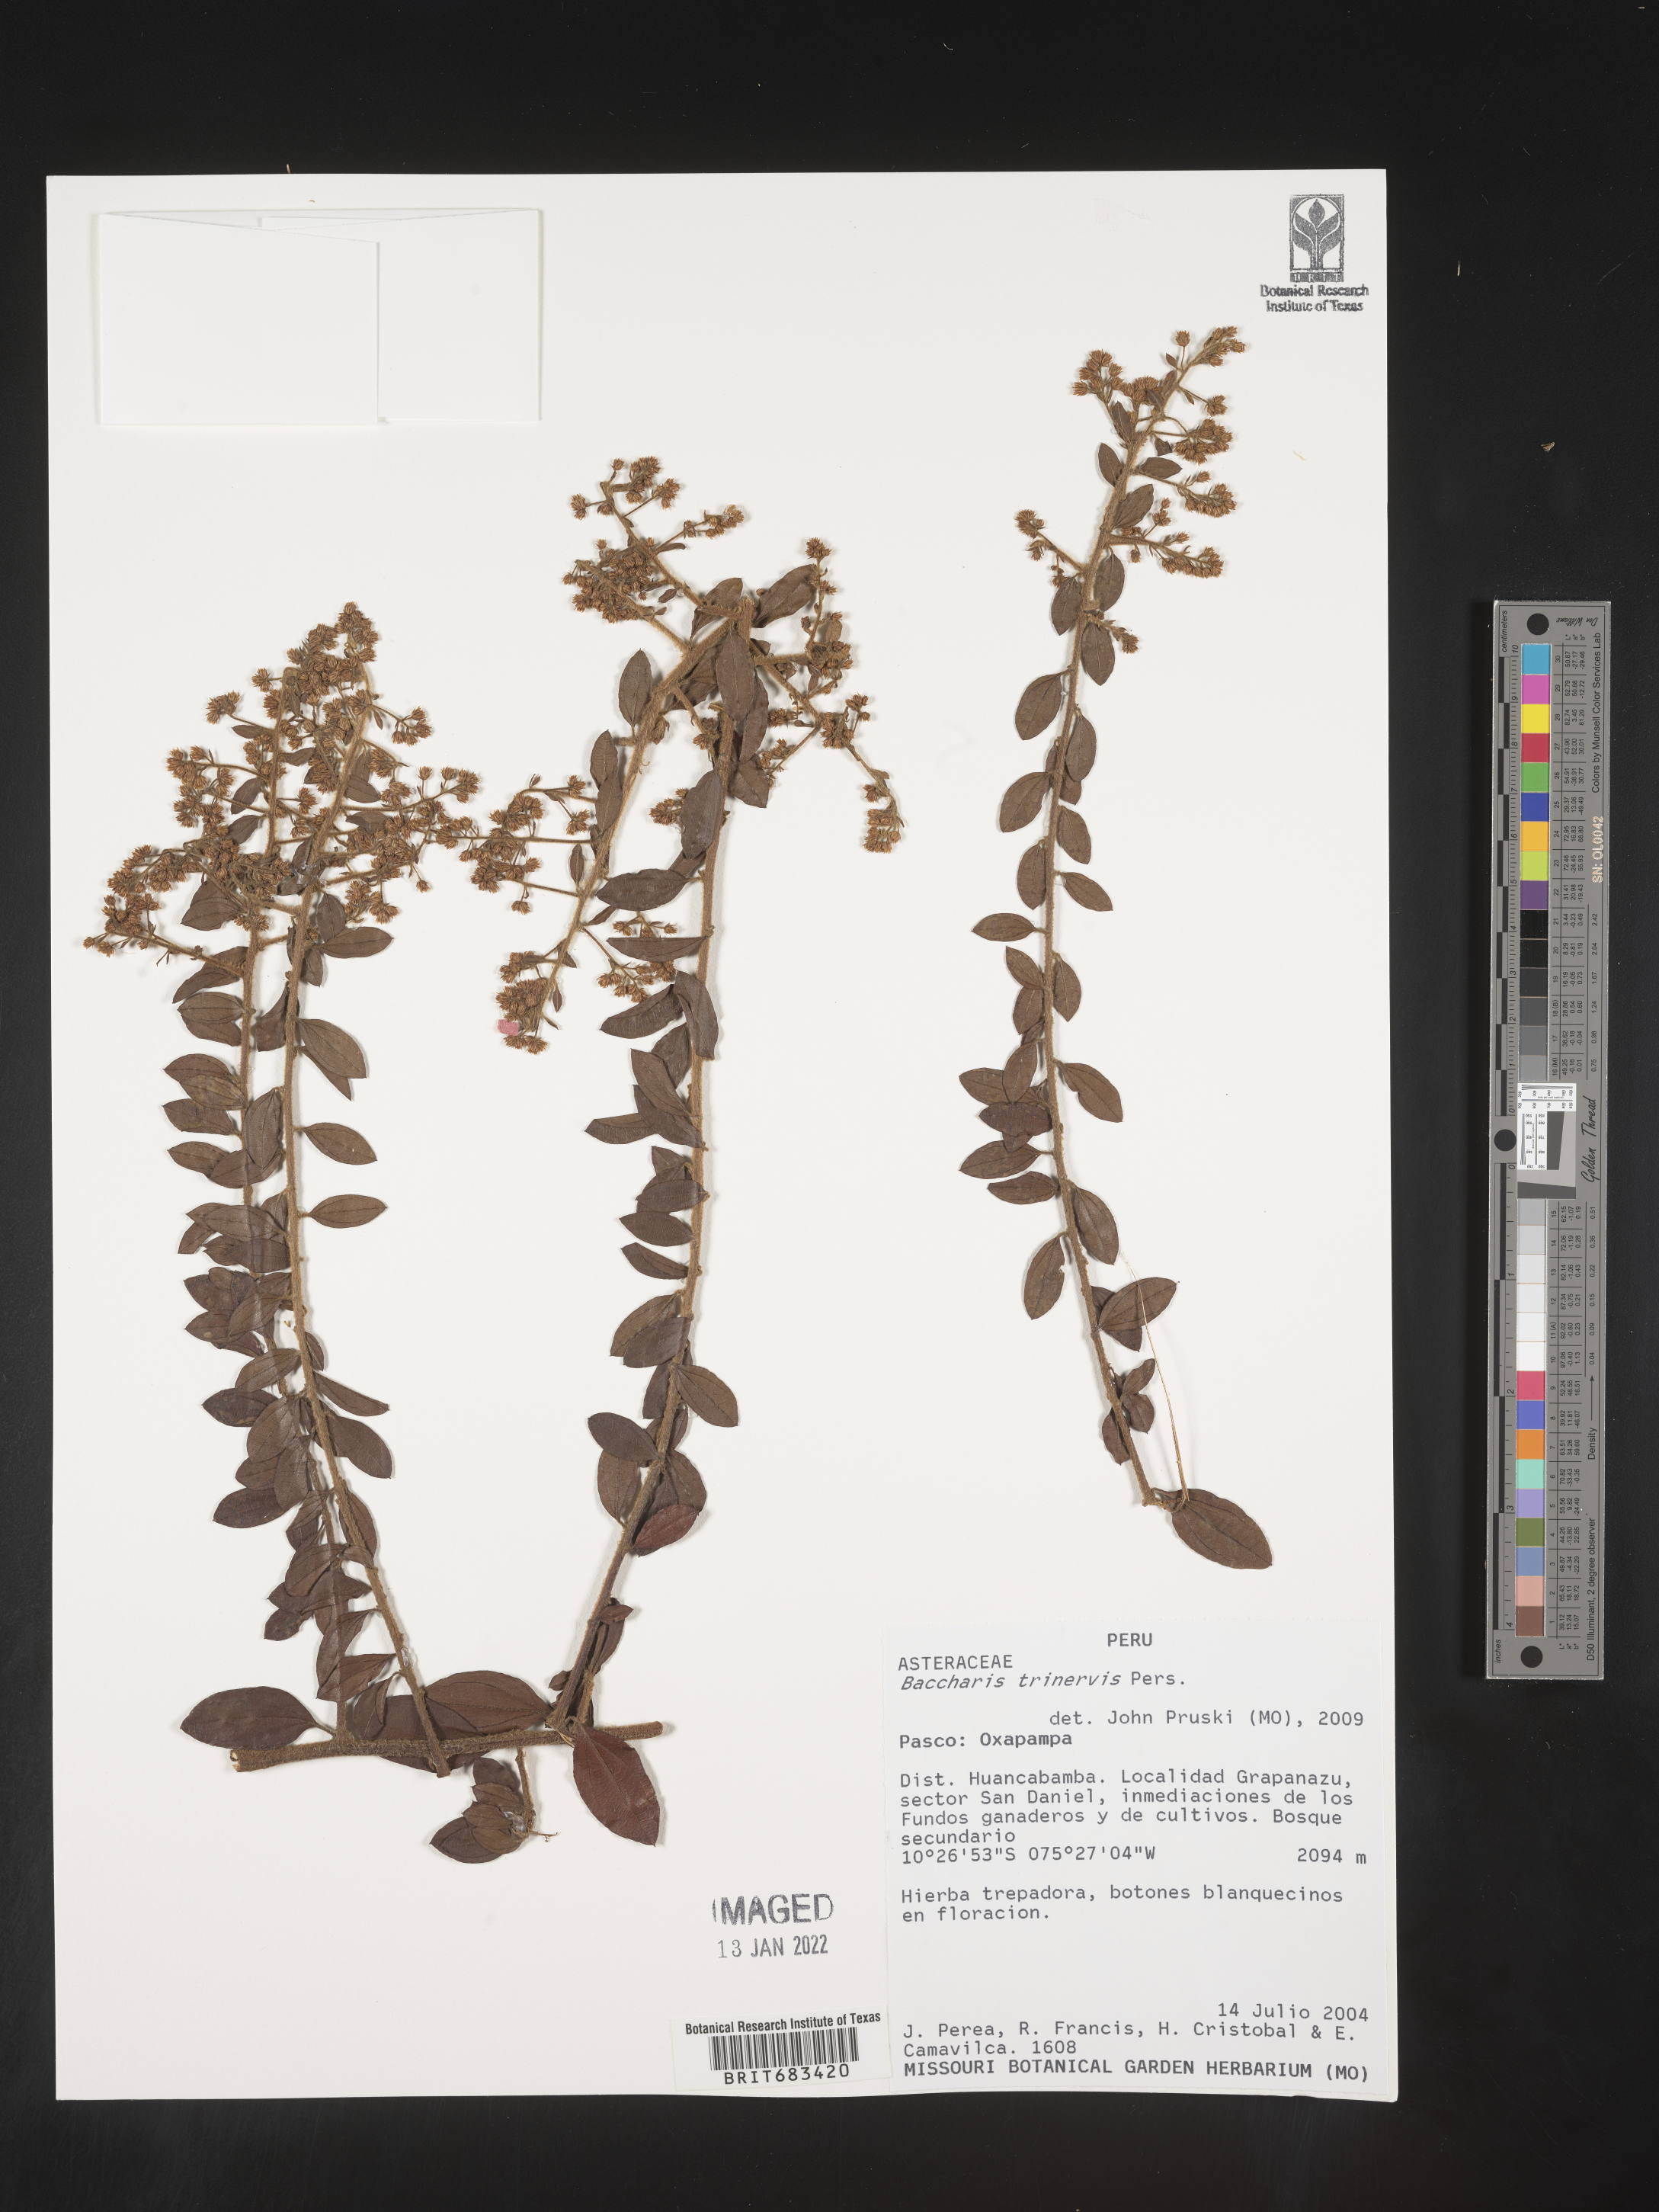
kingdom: Plantae
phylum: Tracheophyta
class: Magnoliopsida
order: Asterales
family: Asteraceae
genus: Baccharis
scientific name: Baccharis trinervis
